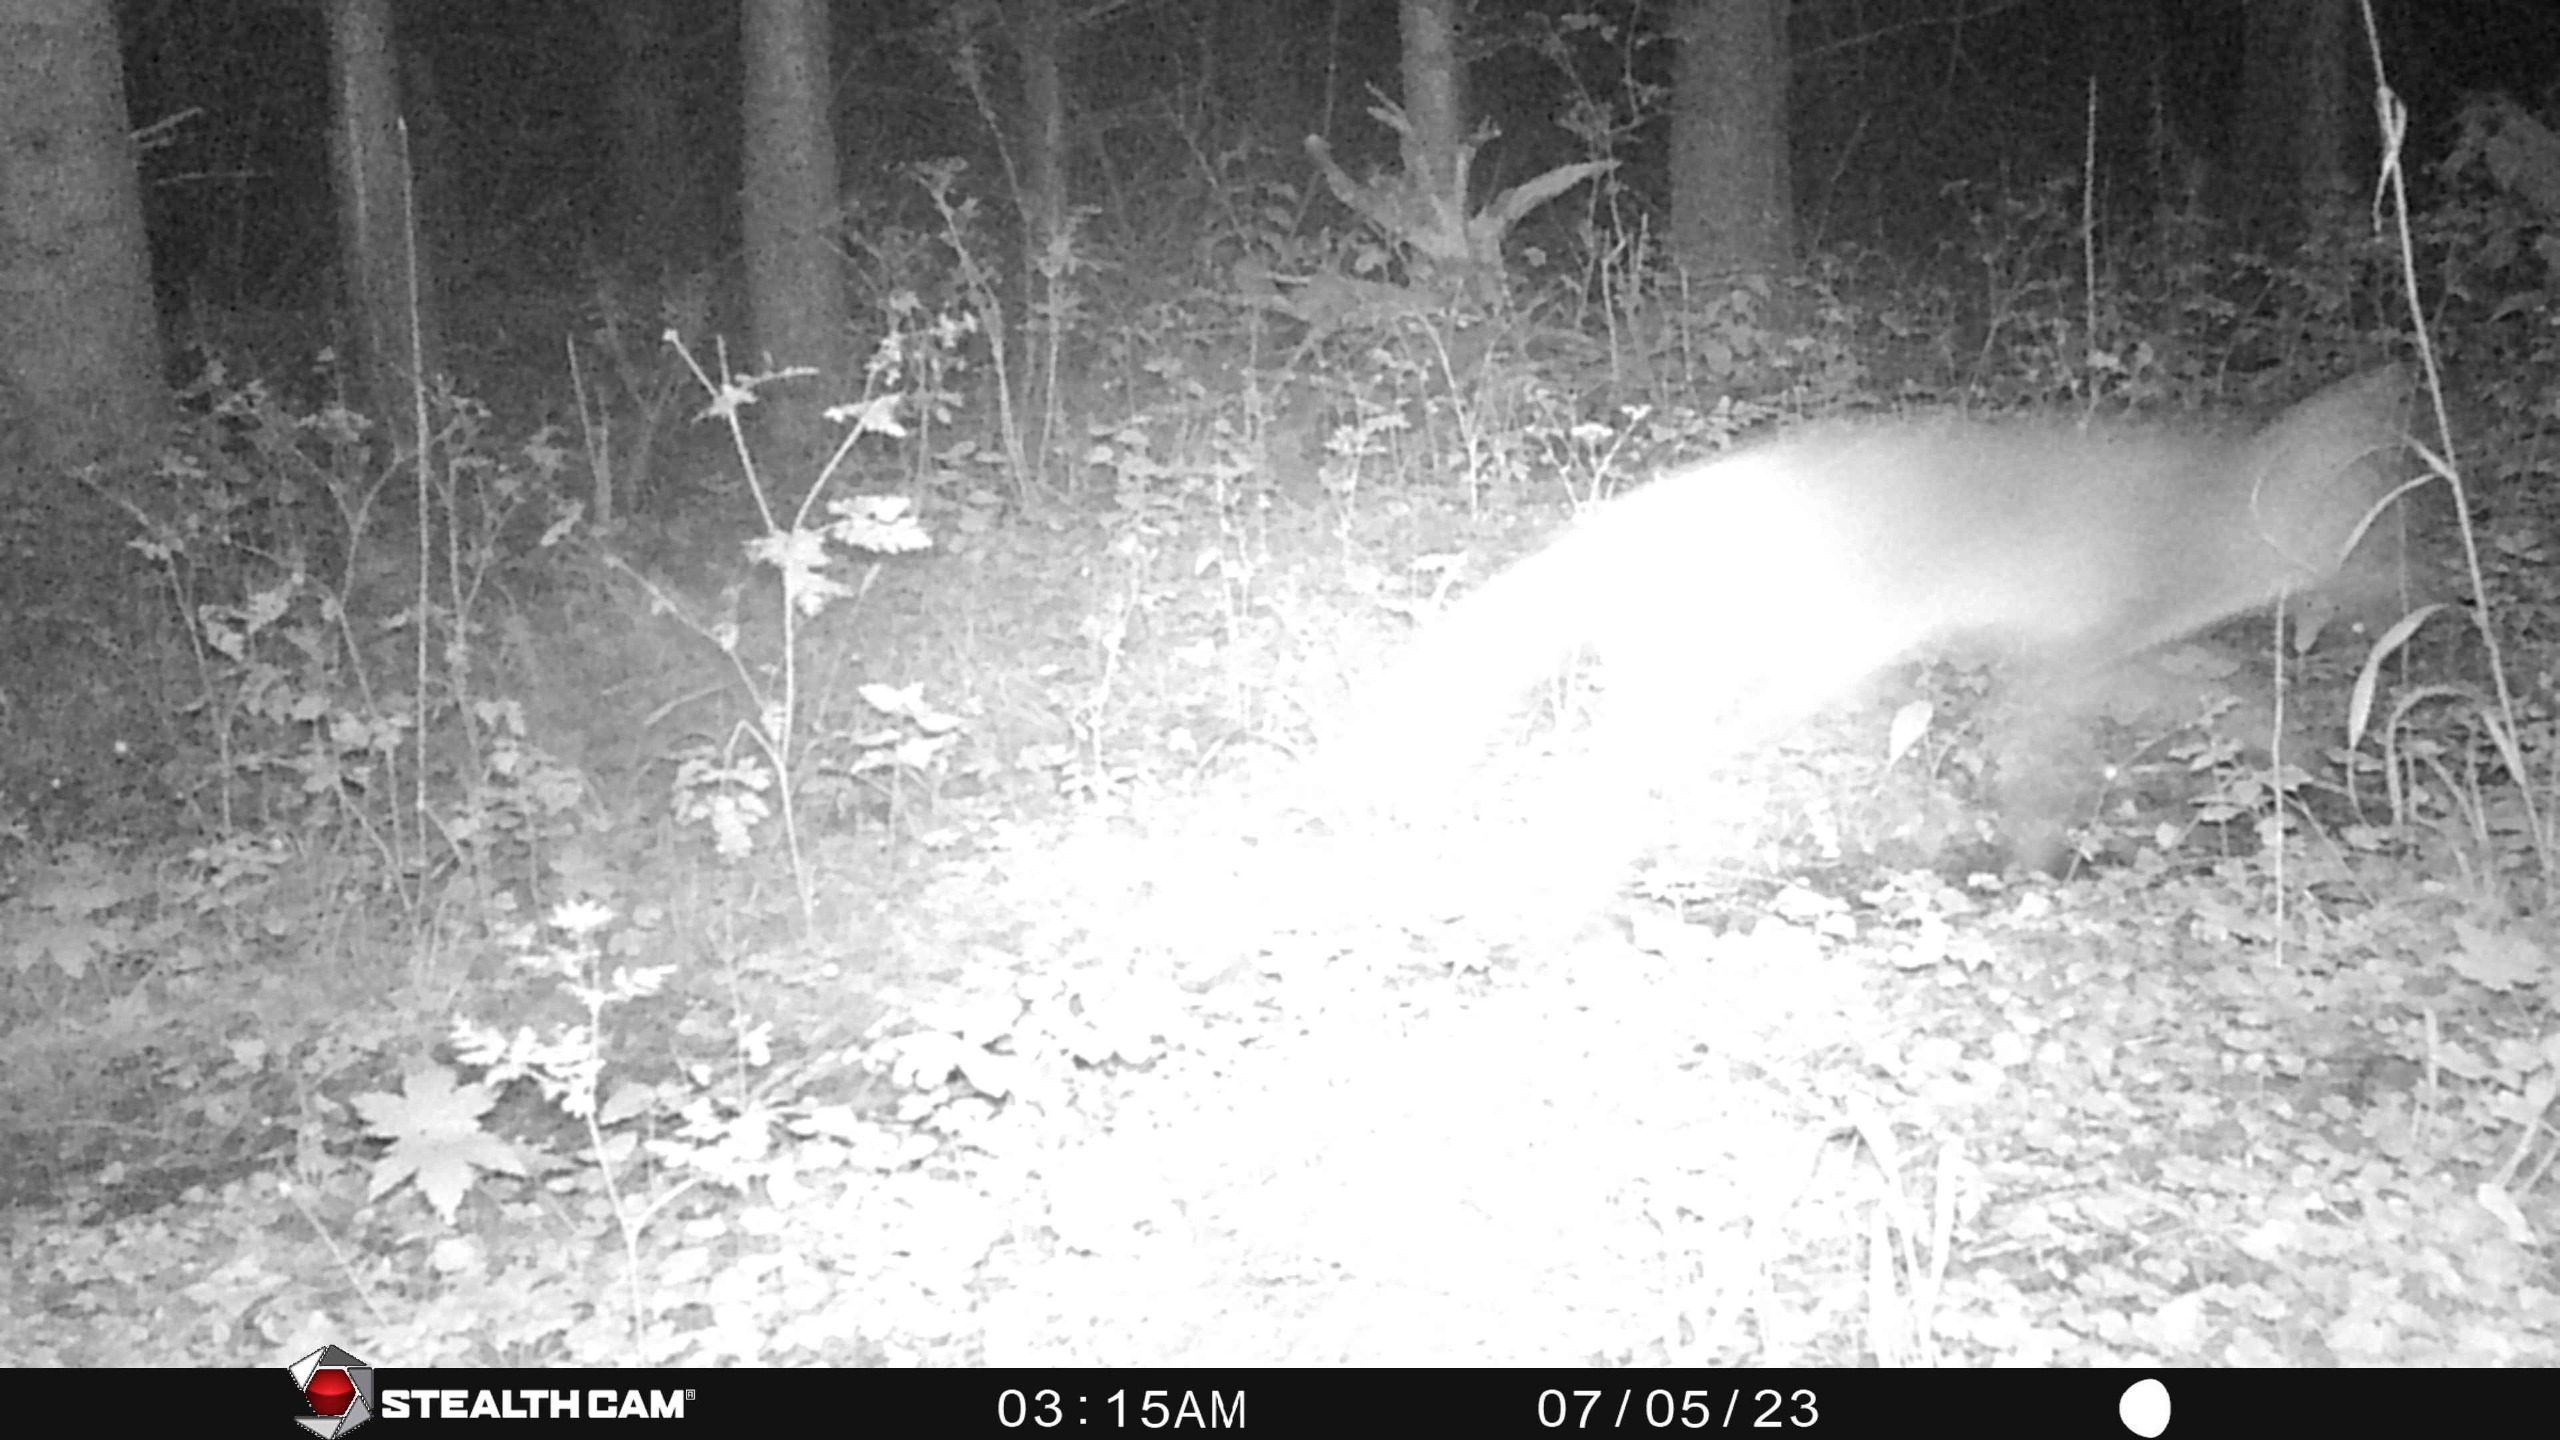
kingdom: Animalia
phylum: Chordata
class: Mammalia
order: Carnivora
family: Canidae
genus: Vulpes
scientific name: Vulpes vulpes
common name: Ræv
